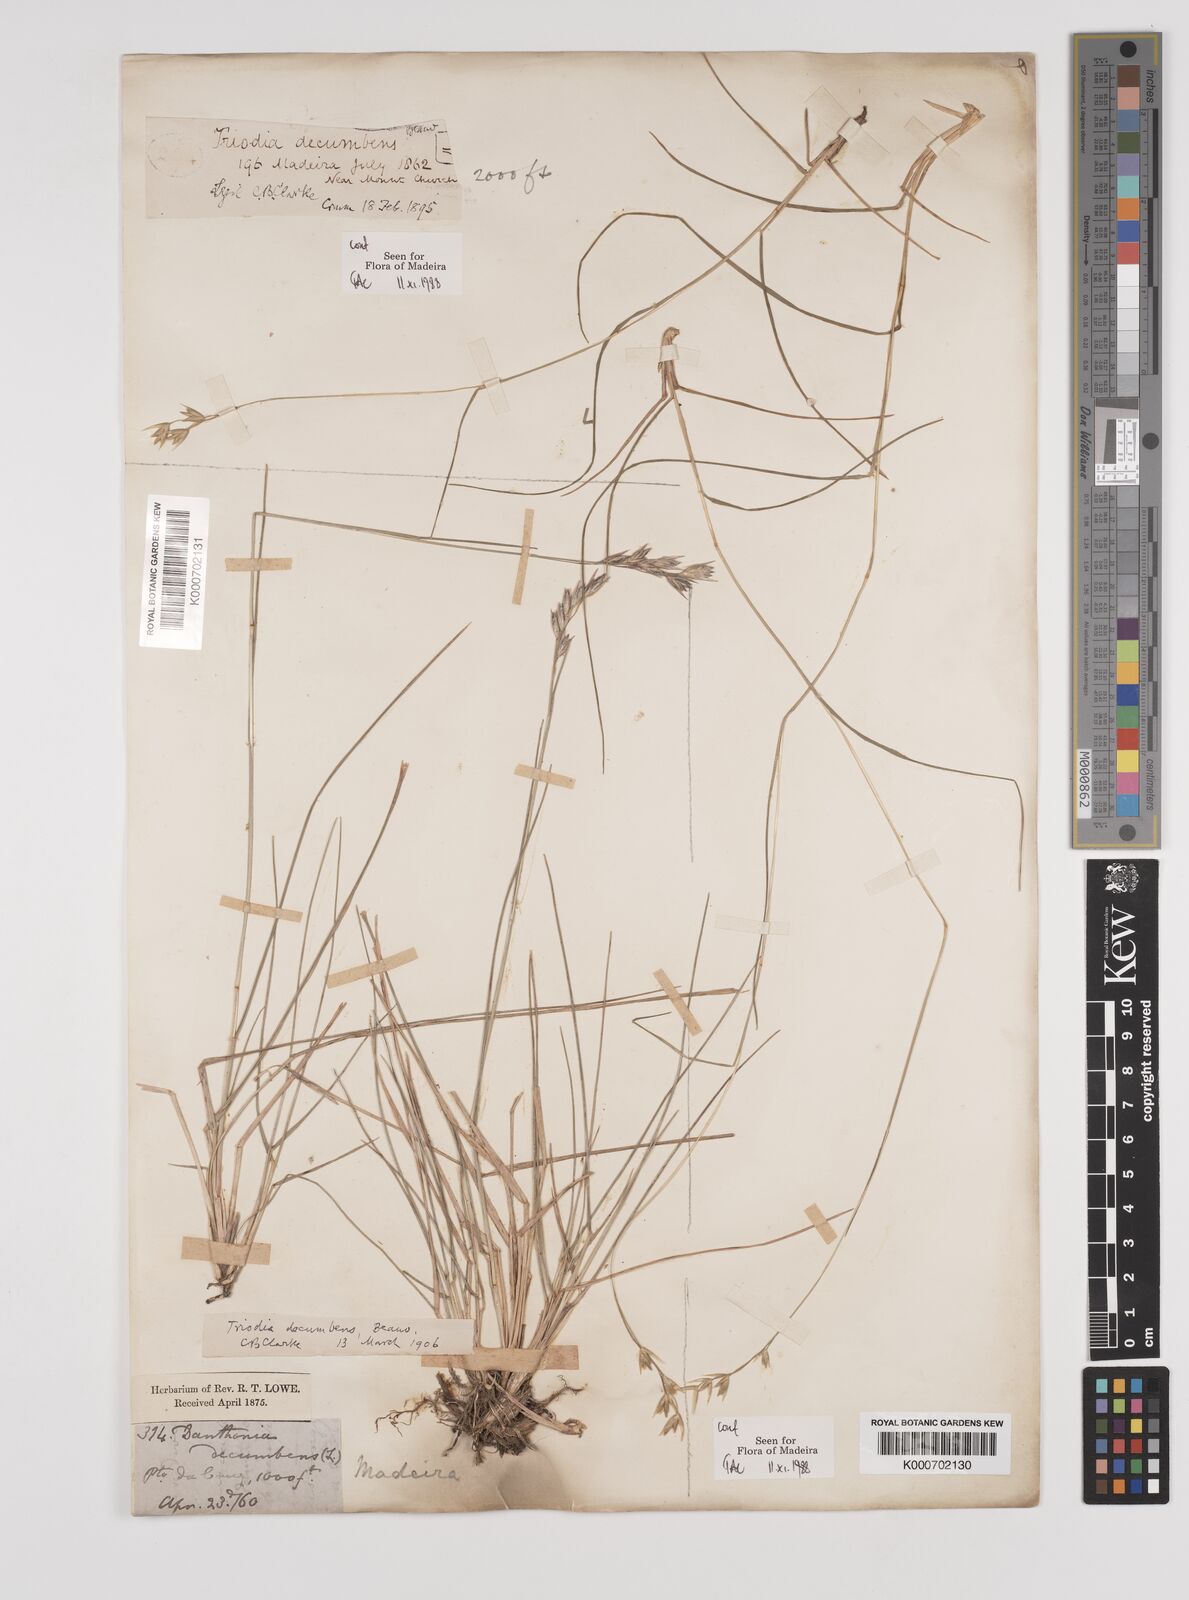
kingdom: Plantae
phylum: Tracheophyta
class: Liliopsida
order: Poales
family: Poaceae
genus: Danthonia
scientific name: Danthonia decumbens
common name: Common heathgrass
